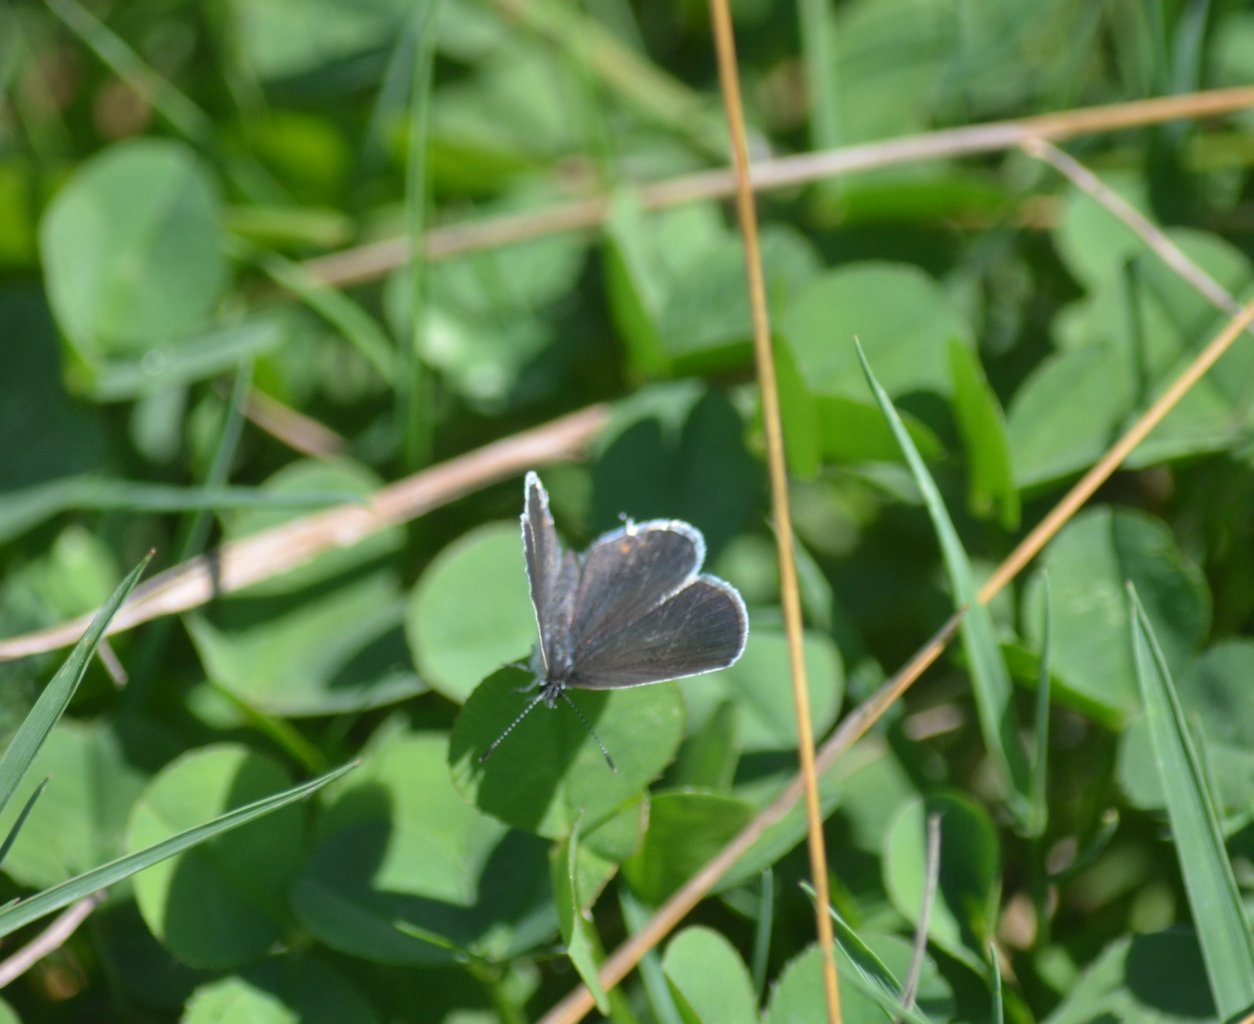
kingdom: Animalia
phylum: Arthropoda
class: Insecta
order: Lepidoptera
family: Lycaenidae
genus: Elkalyce
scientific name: Elkalyce comyntas
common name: Eastern Tailed-Blue
